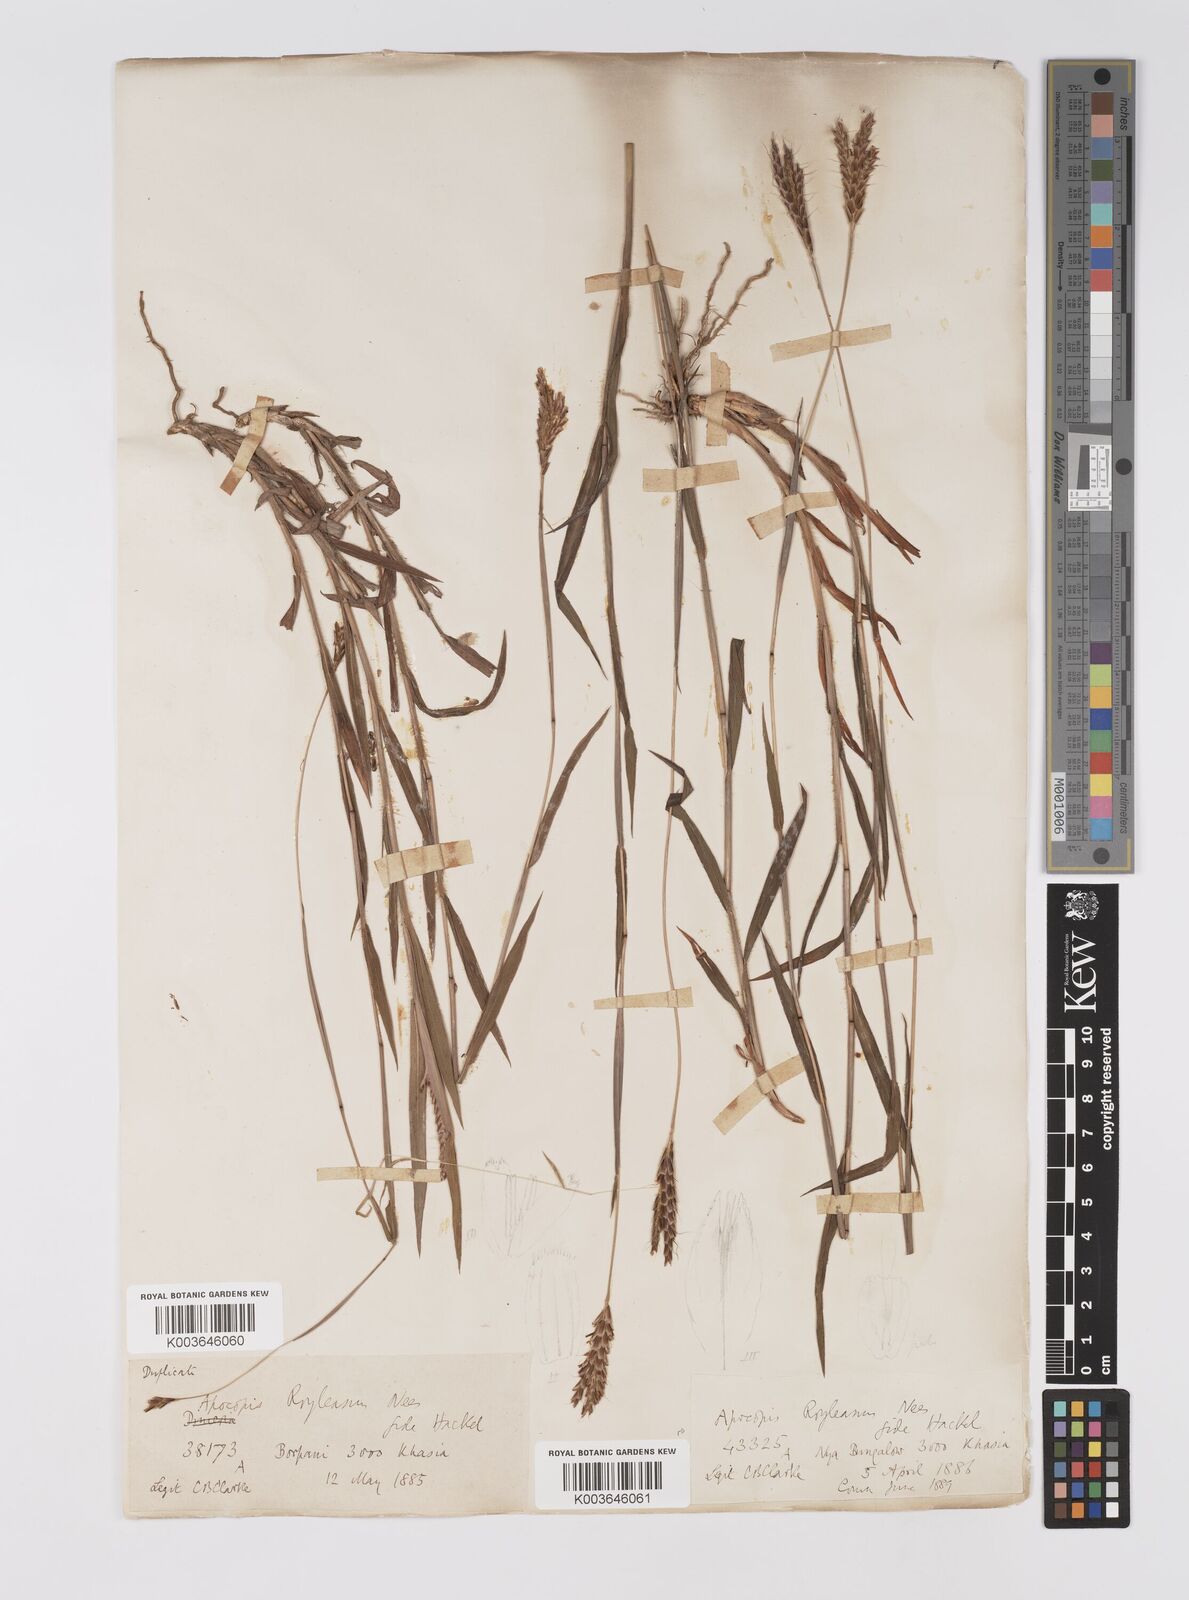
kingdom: Plantae
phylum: Tracheophyta
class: Liliopsida
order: Poales
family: Poaceae
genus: Apocopis
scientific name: Apocopis paleaceus
